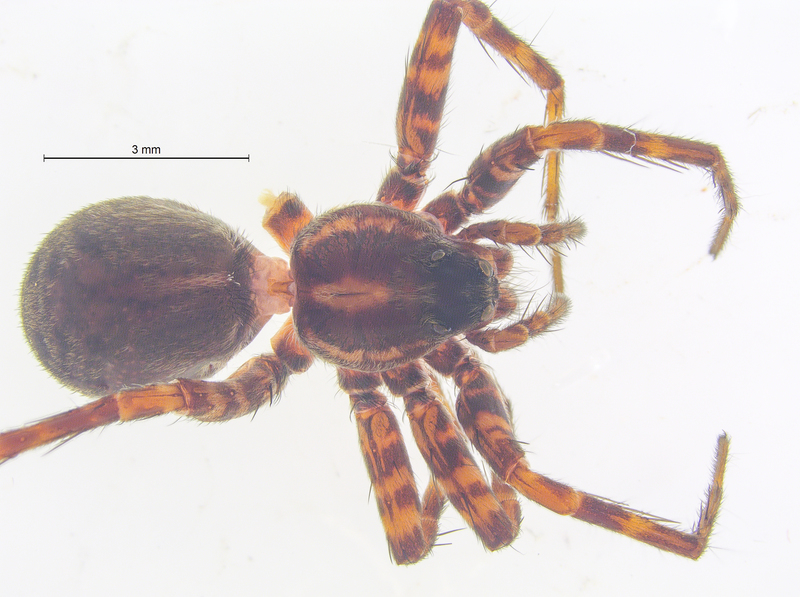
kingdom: Animalia
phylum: Arthropoda
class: Arachnida
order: Araneae
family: Lycosidae
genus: Pardosa
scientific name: Pardosa prativaga
